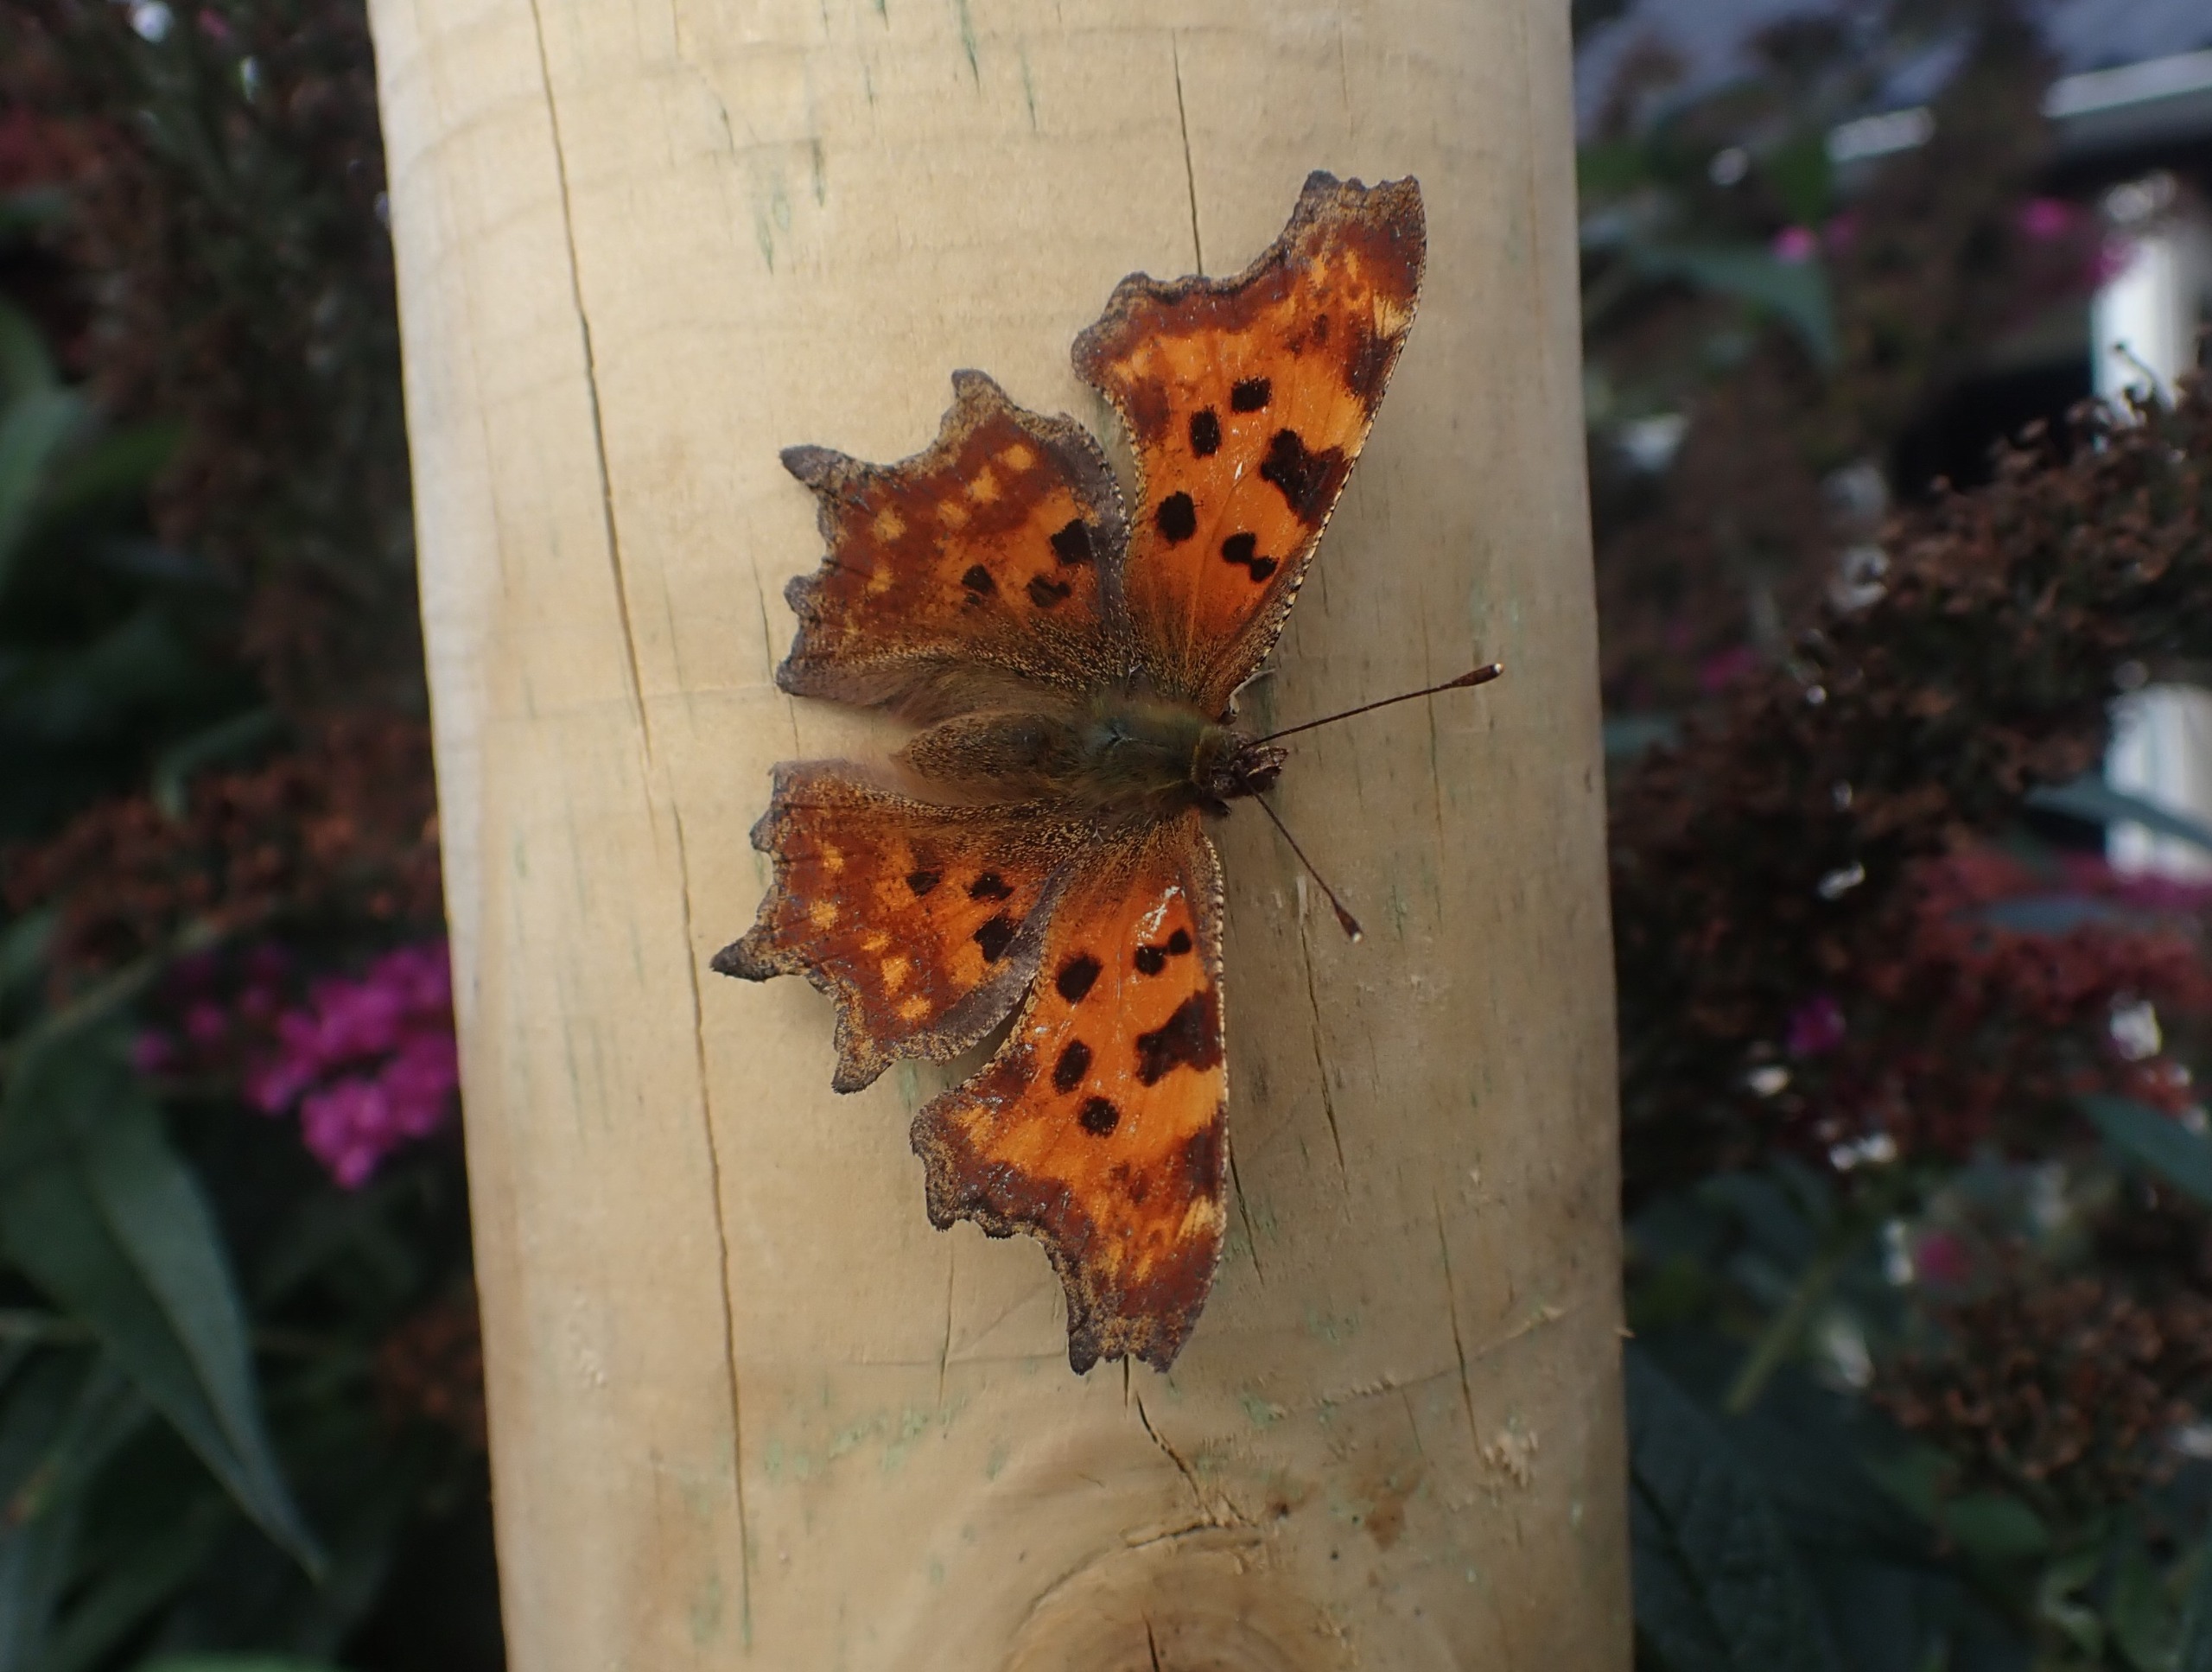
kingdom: Animalia
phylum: Arthropoda
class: Insecta
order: Lepidoptera
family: Nymphalidae
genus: Polygonia
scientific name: Polygonia c-album
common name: Det hvide C
